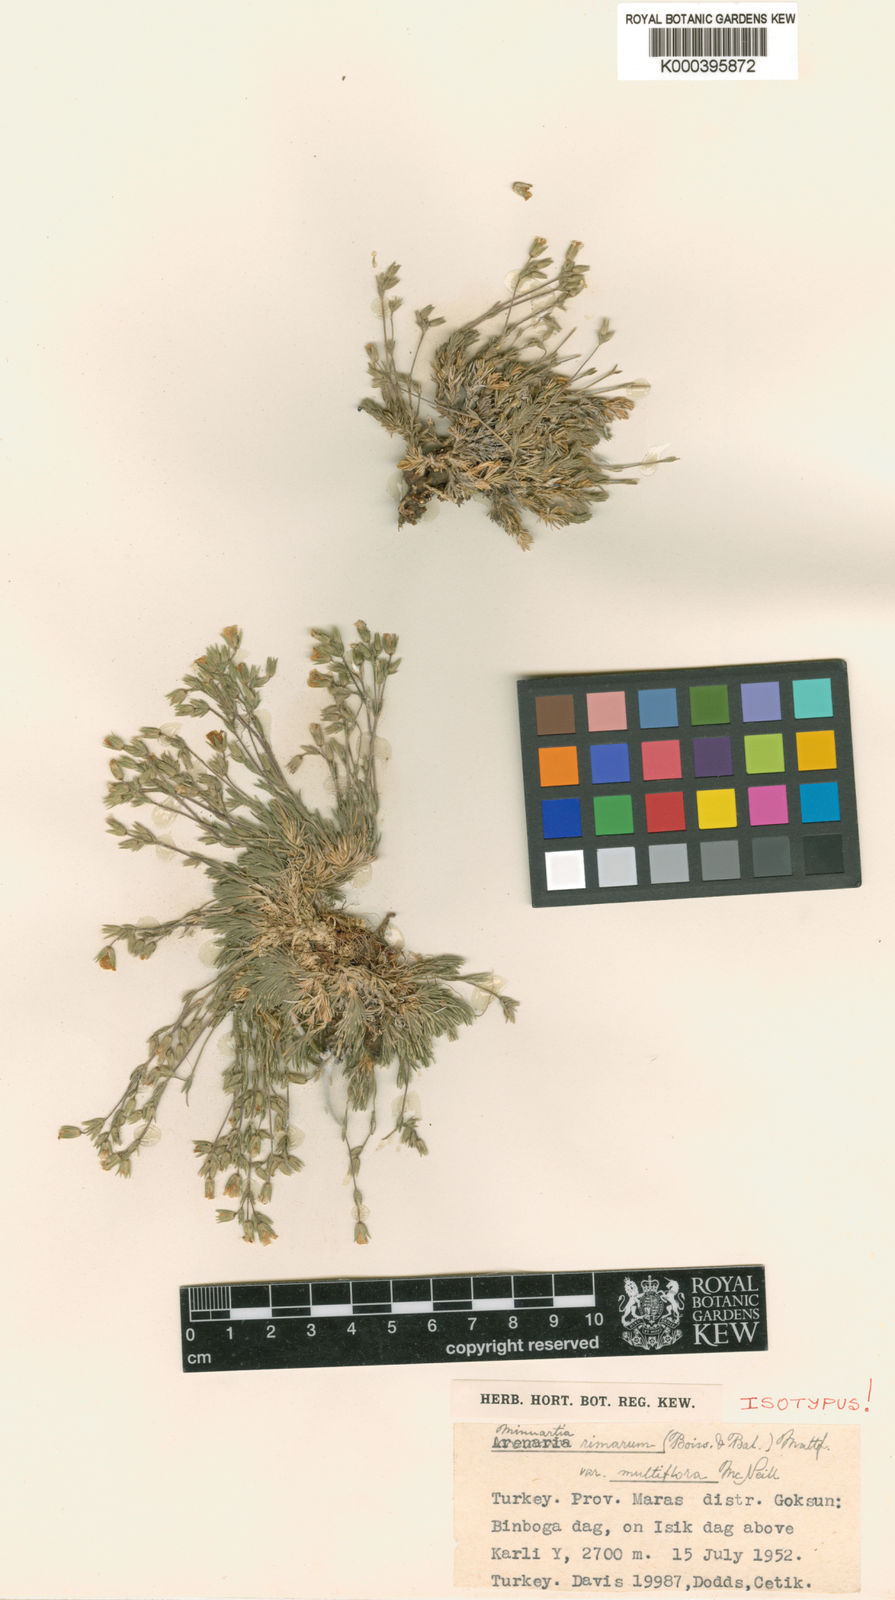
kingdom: Plantae
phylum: Tracheophyta
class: Magnoliopsida
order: Caryophyllales
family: Caryophyllaceae
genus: Sabulina
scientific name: Sabulina rimarum
